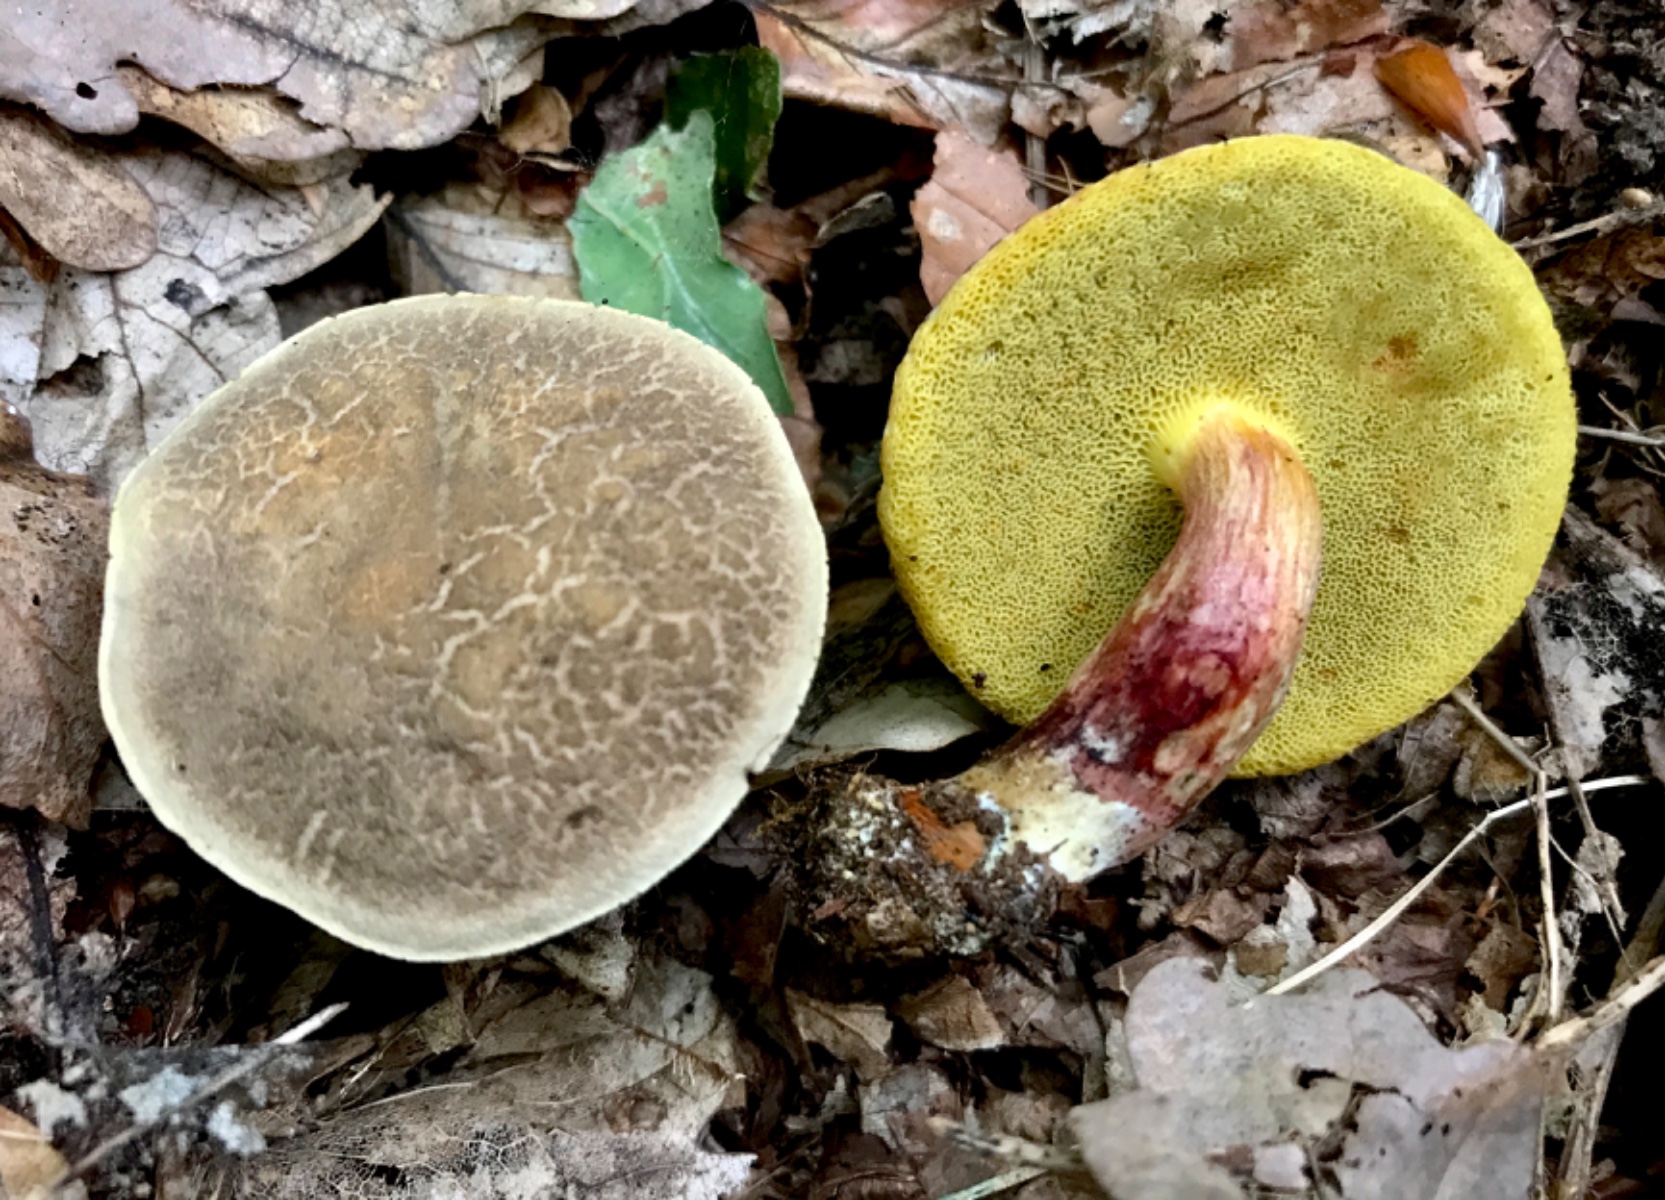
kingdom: Fungi
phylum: Basidiomycota
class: Agaricomycetes
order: Boletales
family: Boletaceae
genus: Xerocomellus
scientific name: Xerocomellus
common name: dværgrørhat
